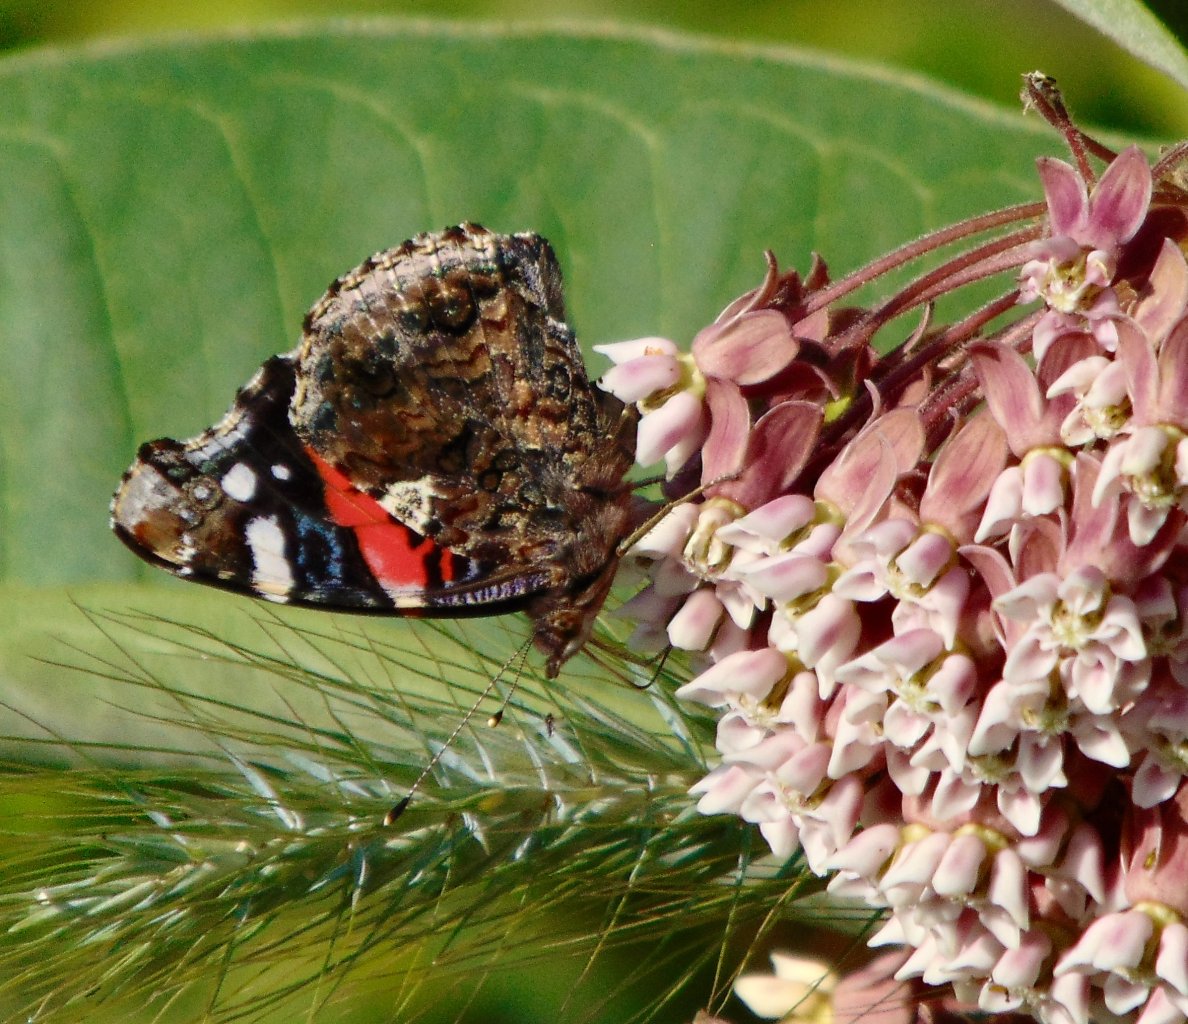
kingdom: Animalia
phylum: Arthropoda
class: Insecta
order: Lepidoptera
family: Nymphalidae
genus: Vanessa
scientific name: Vanessa atalanta
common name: Red Admiral
